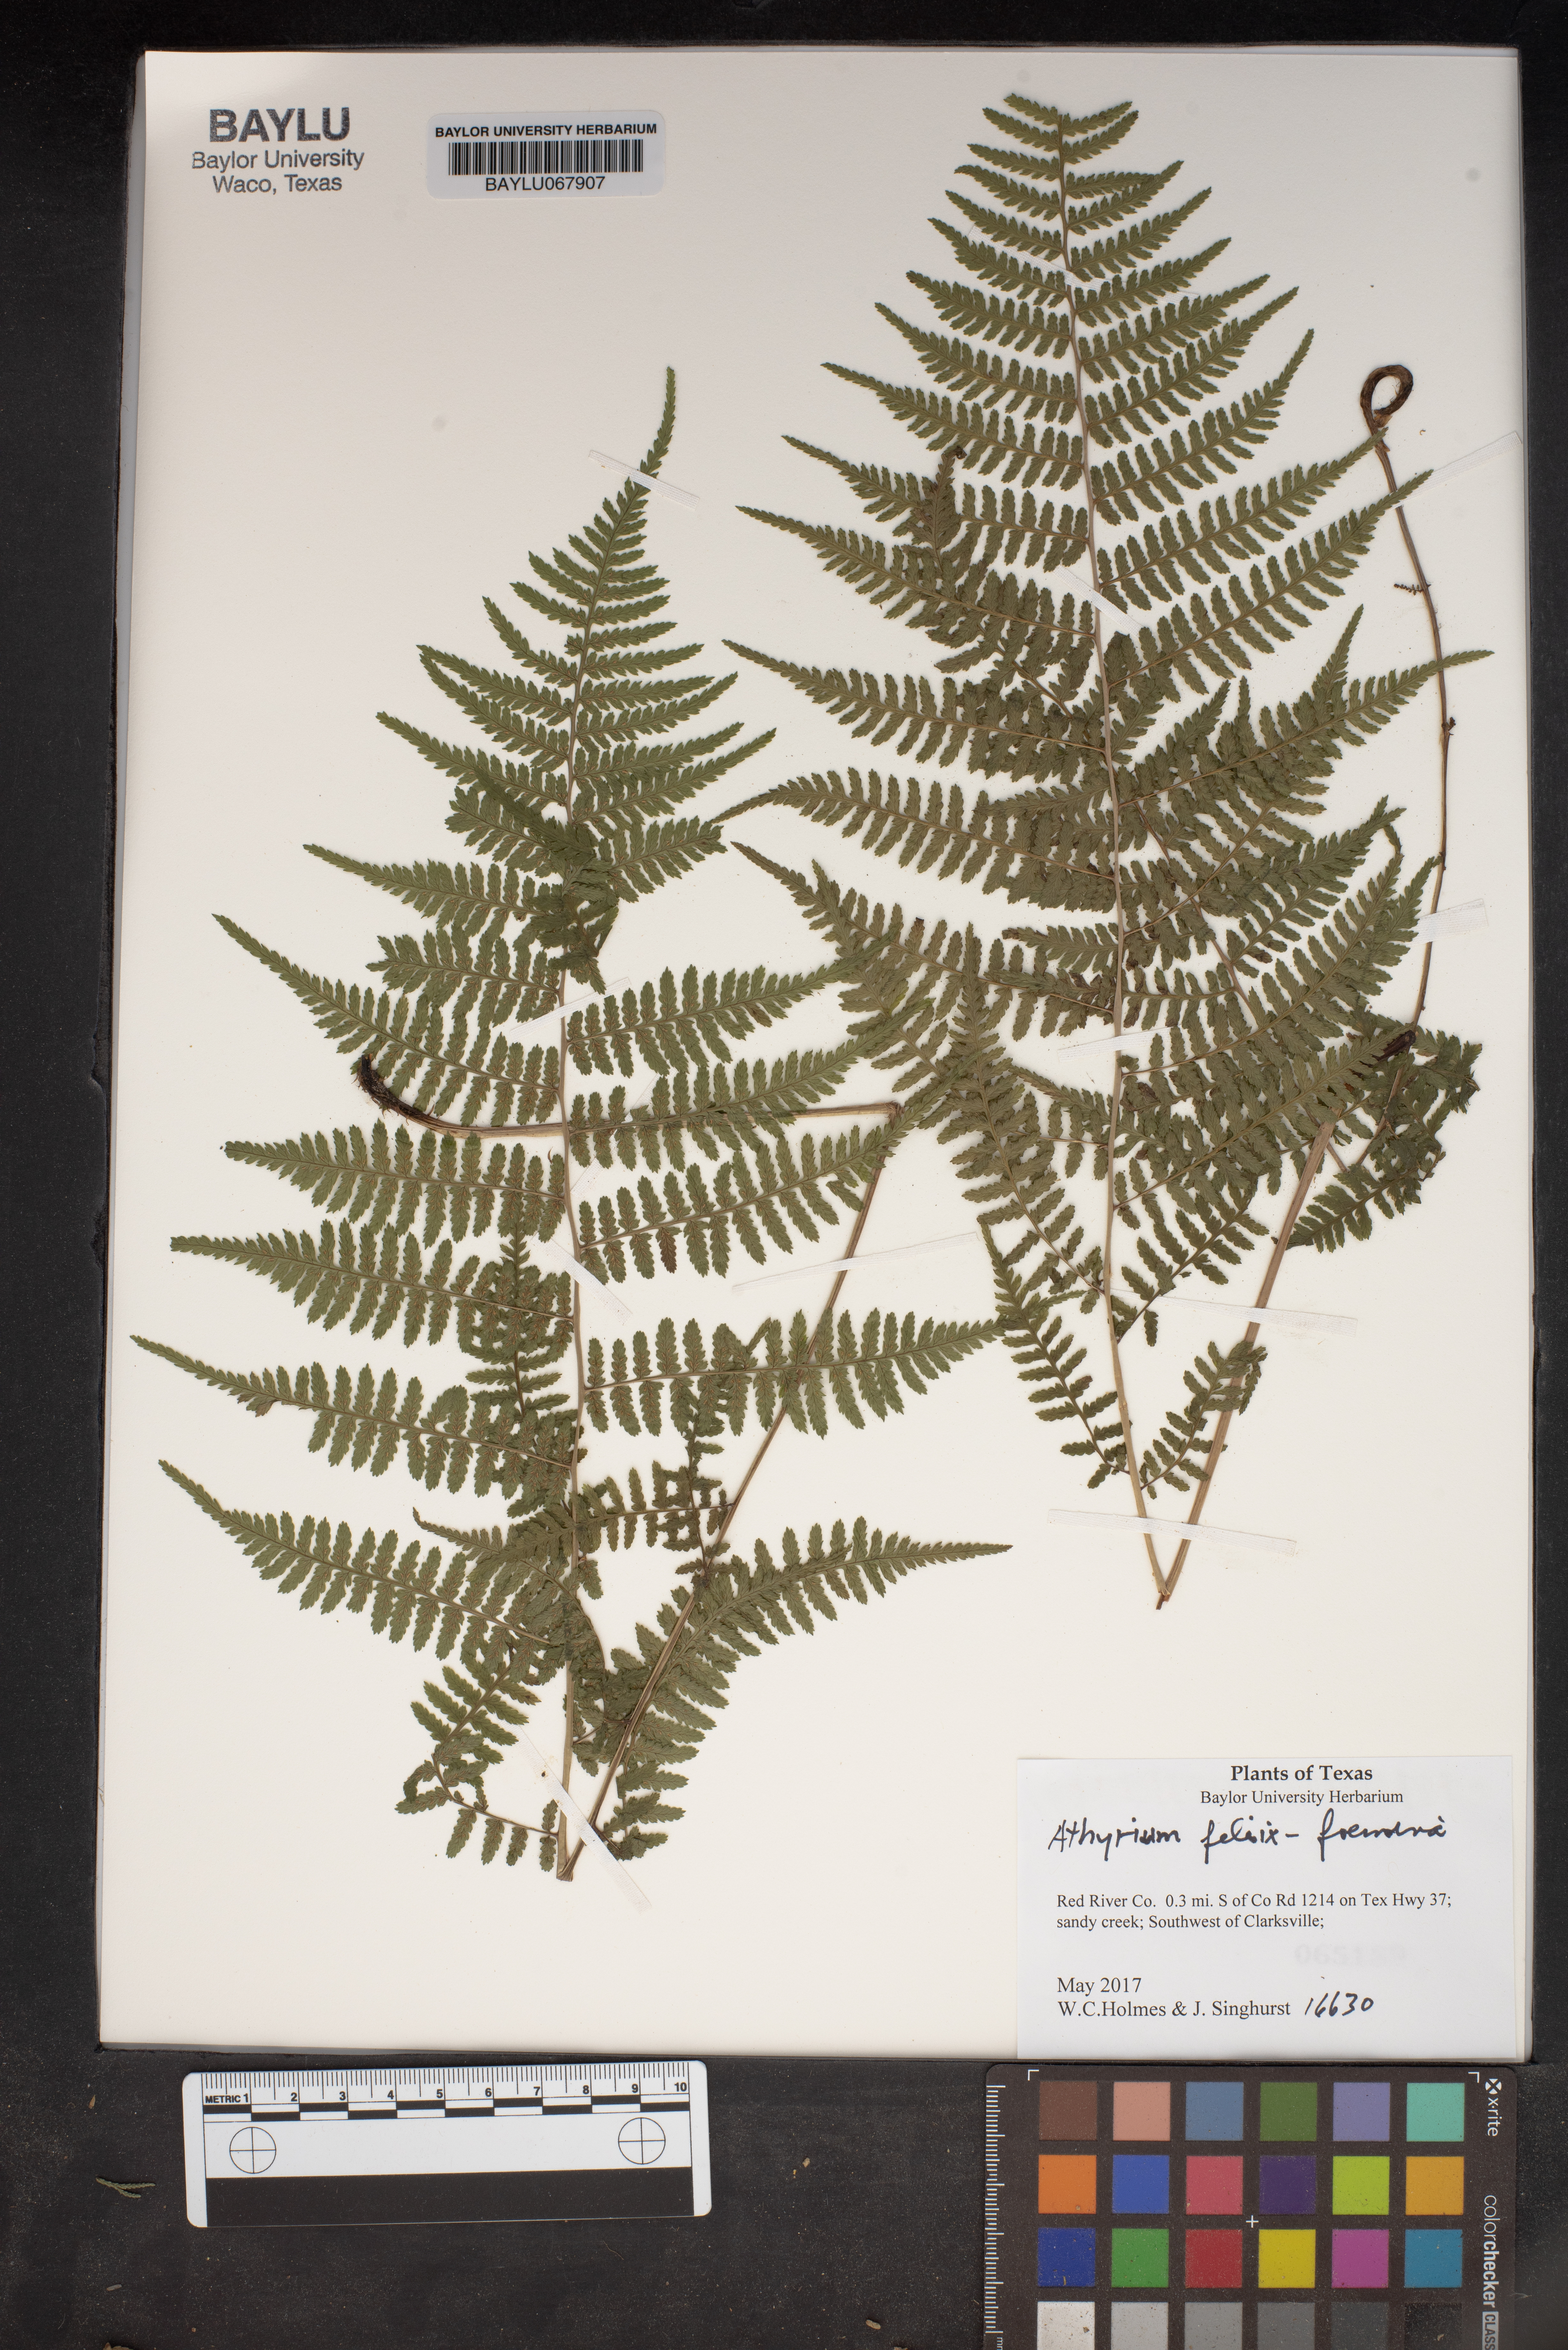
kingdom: Plantae
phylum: Tracheophyta
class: Polypodiopsida
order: Polypodiales
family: Athyriaceae
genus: Athyrium
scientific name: Athyrium filix-femina
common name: Lady fern
